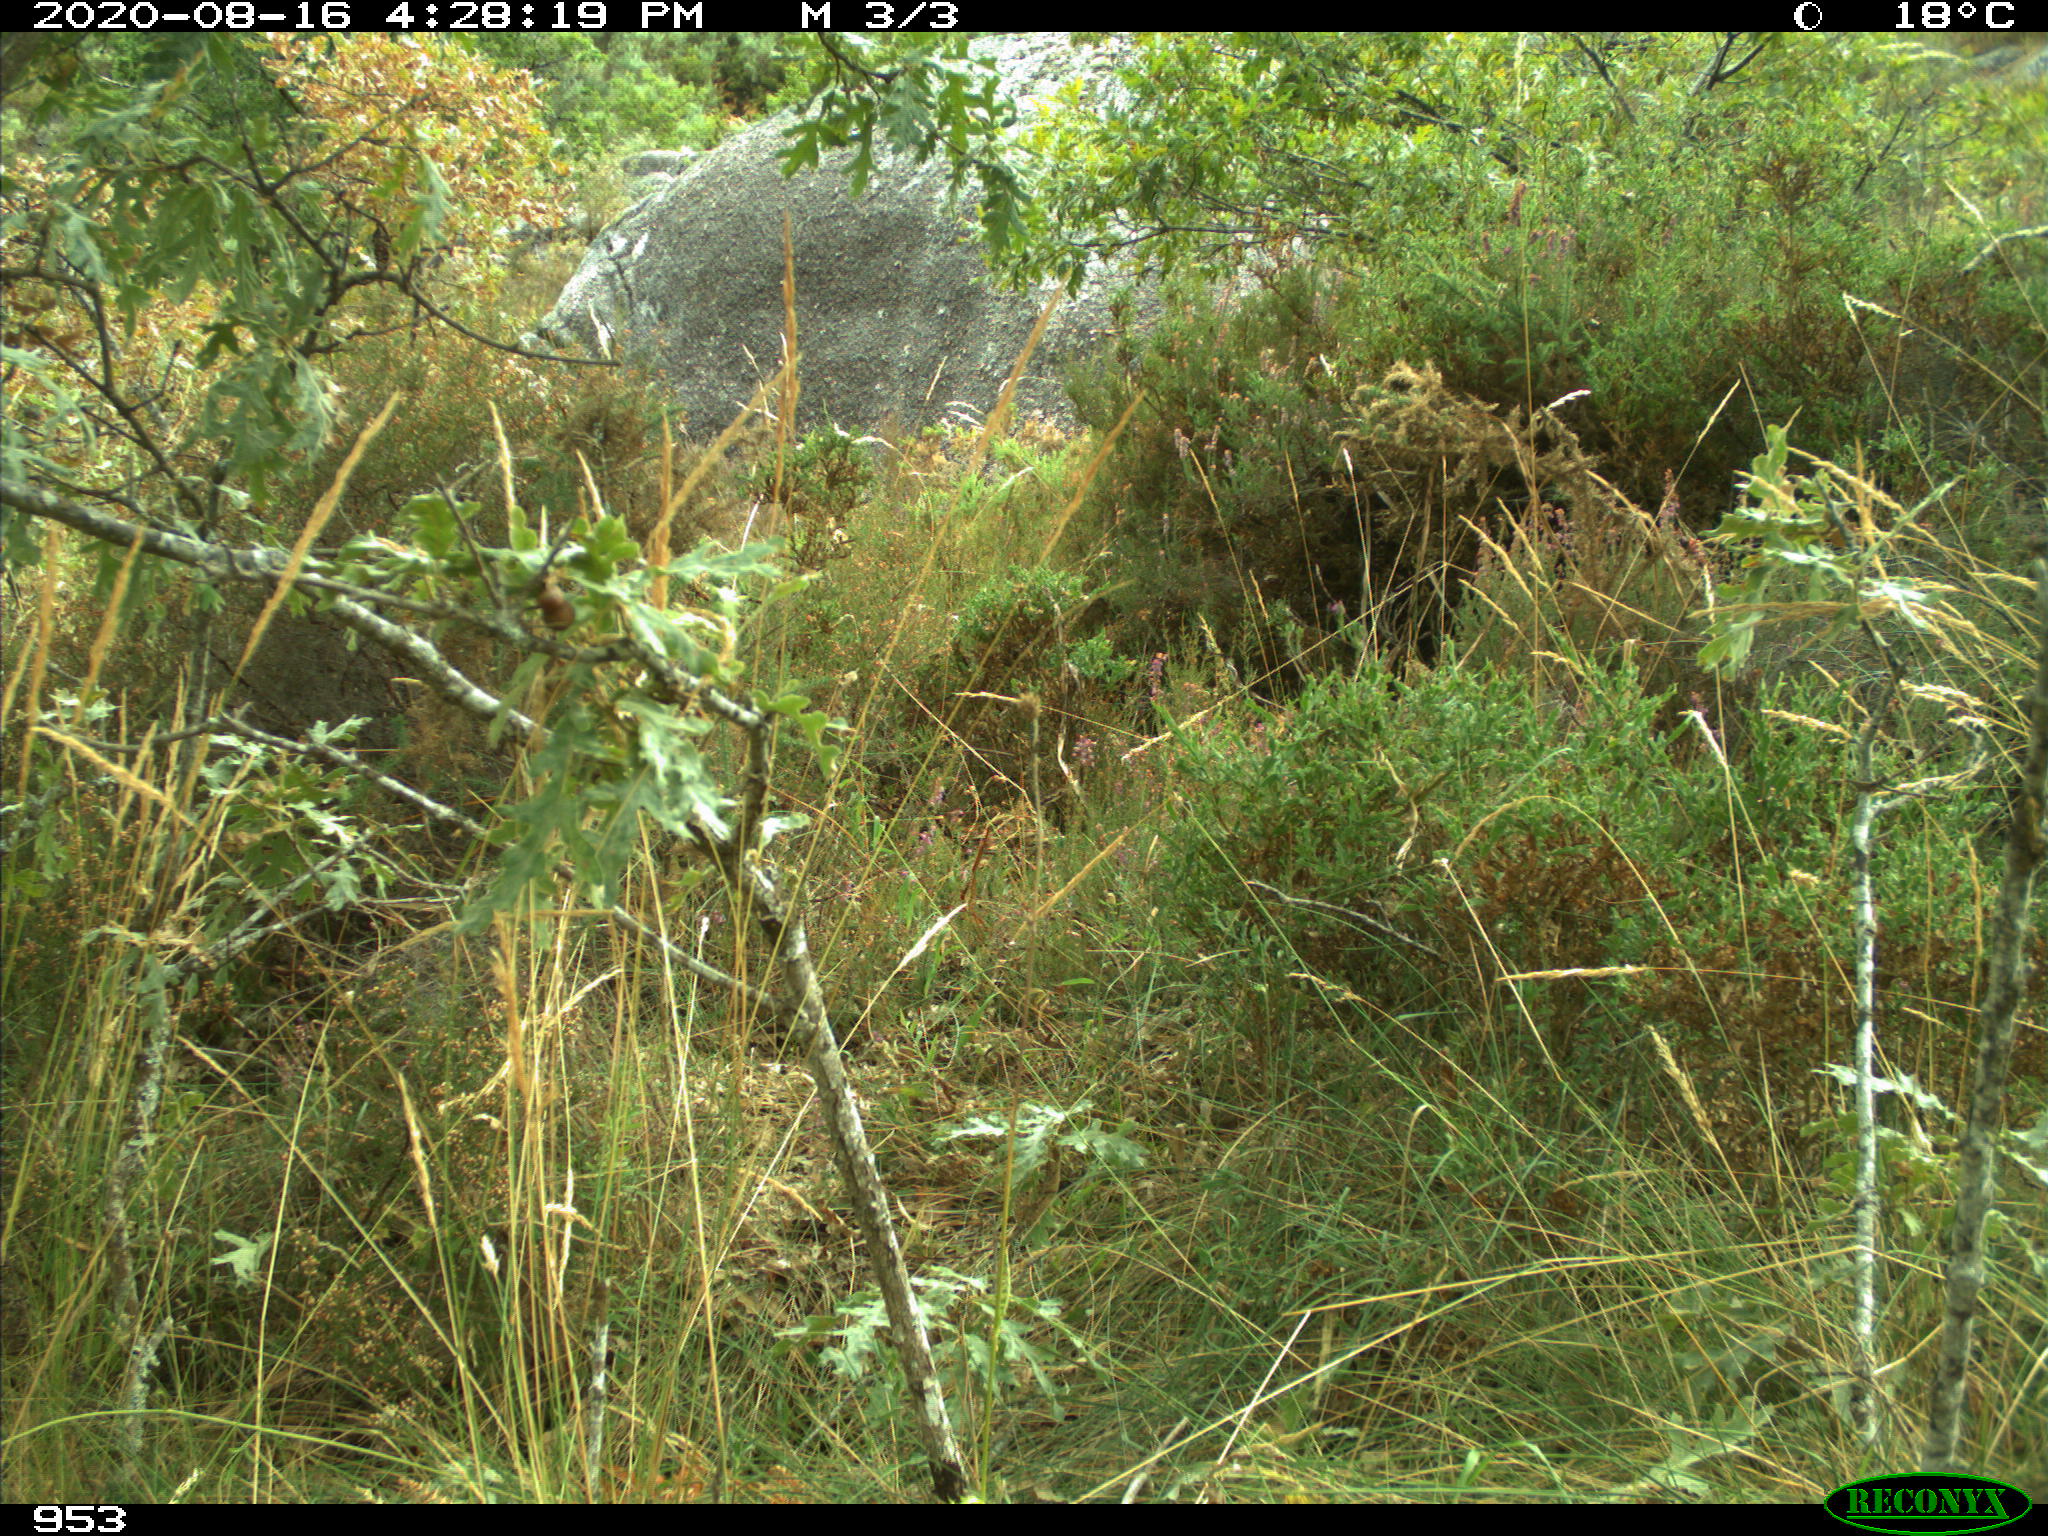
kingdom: Animalia
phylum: Chordata
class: Mammalia
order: Artiodactyla
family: Suidae
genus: Sus
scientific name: Sus scrofa
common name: Wild boar
